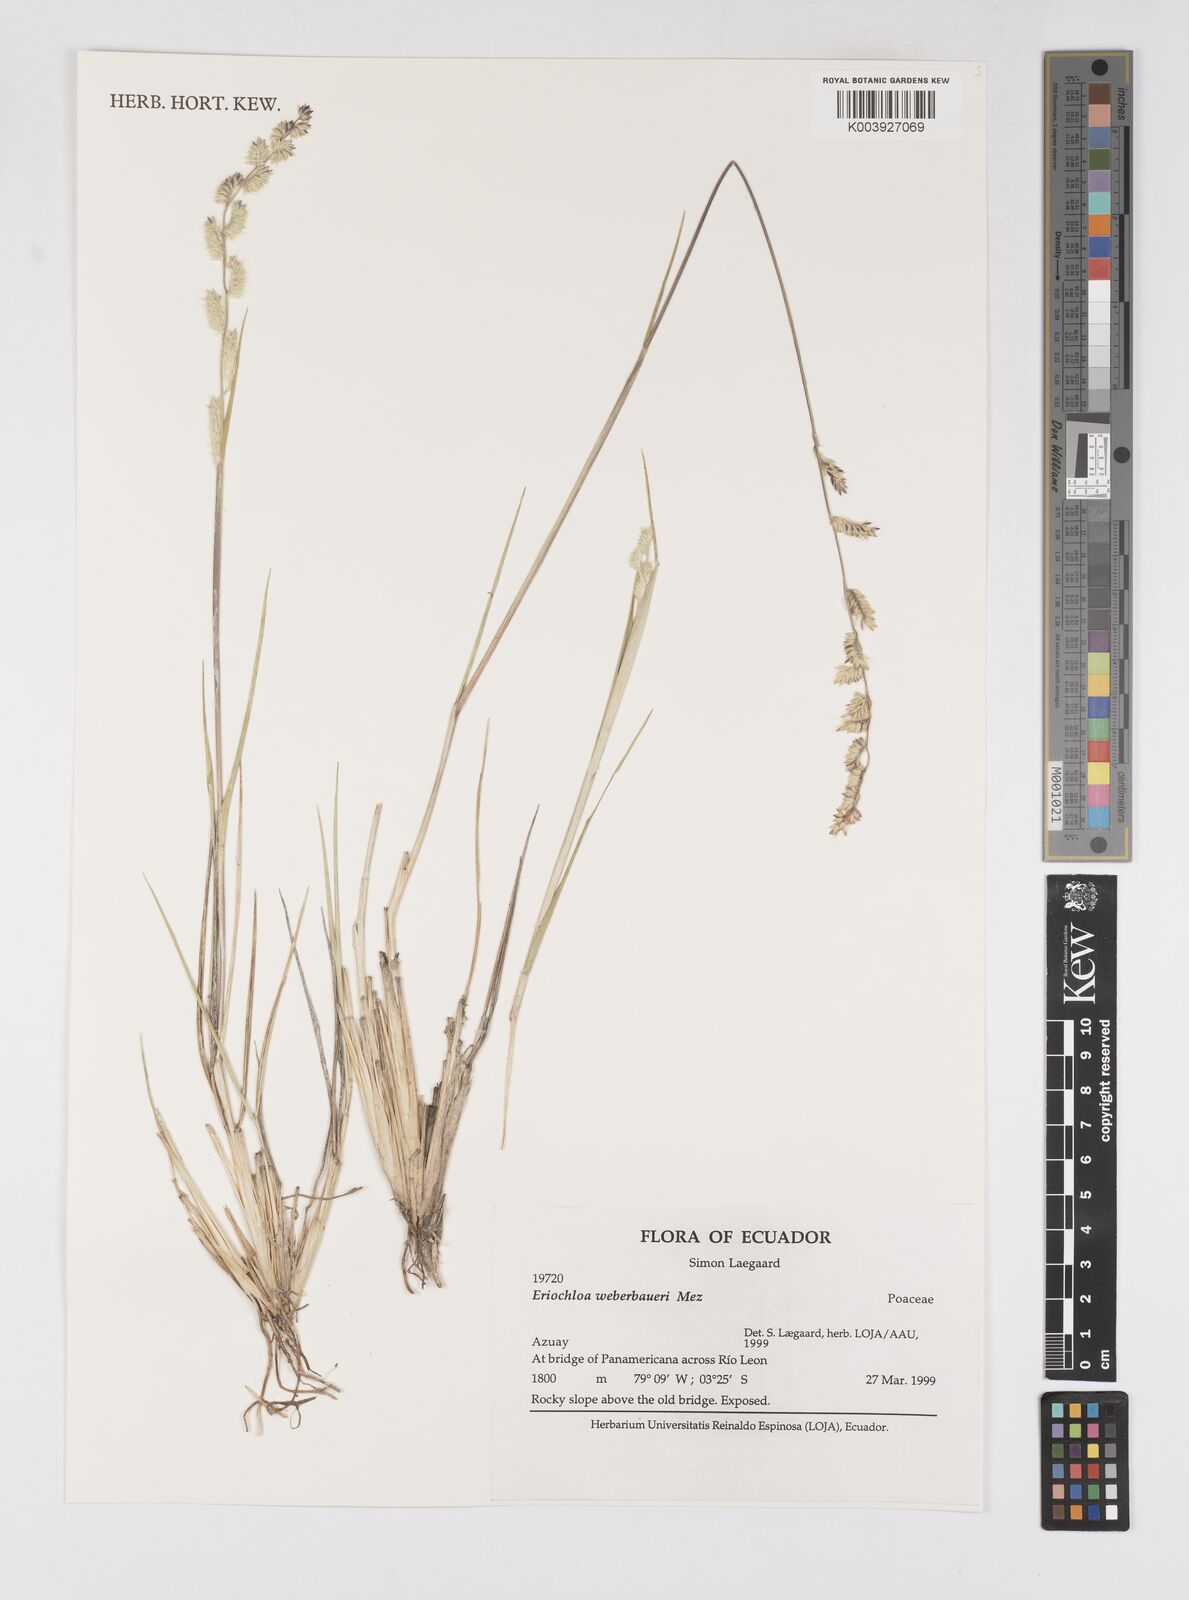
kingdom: Plantae
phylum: Tracheophyta
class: Liliopsida
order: Poales
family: Poaceae
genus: Eriochloa
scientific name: Eriochloa weberbaueri
